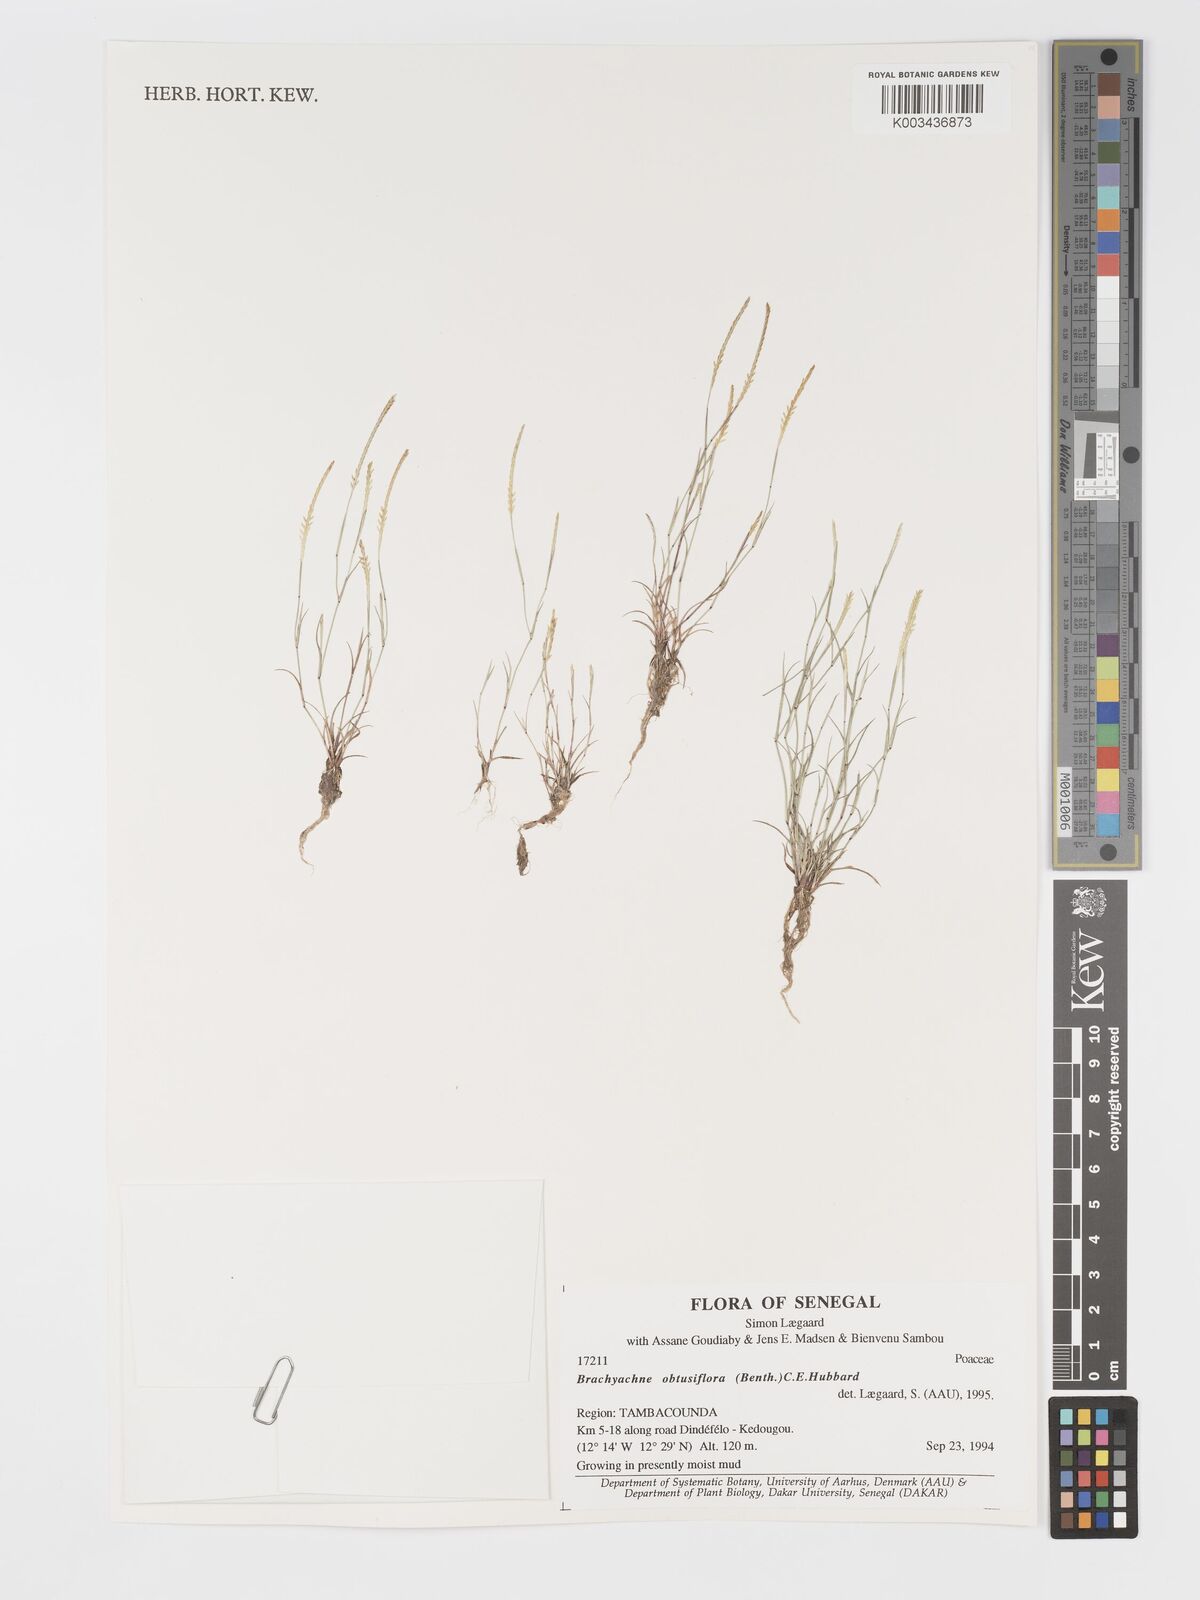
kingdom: Plantae
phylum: Tracheophyta
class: Liliopsida
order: Poales
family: Poaceae
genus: Micrachne
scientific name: Micrachne obtusiflora
